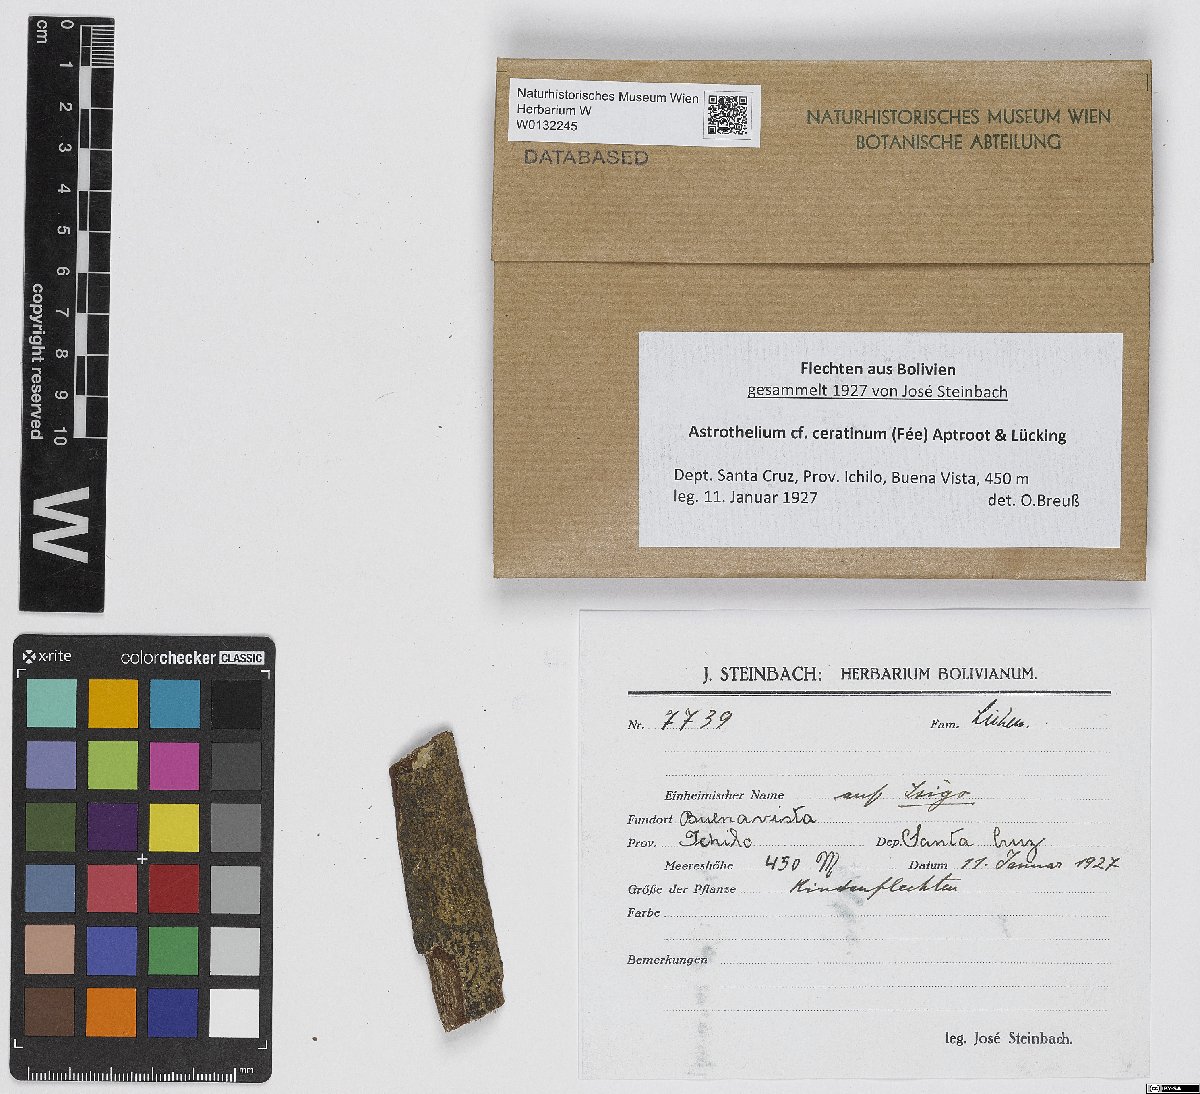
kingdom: Fungi
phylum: Ascomycota
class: Dothideomycetes
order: Trypetheliales
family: Trypetheliaceae
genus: Astrothelium
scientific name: Astrothelium ceratinum
